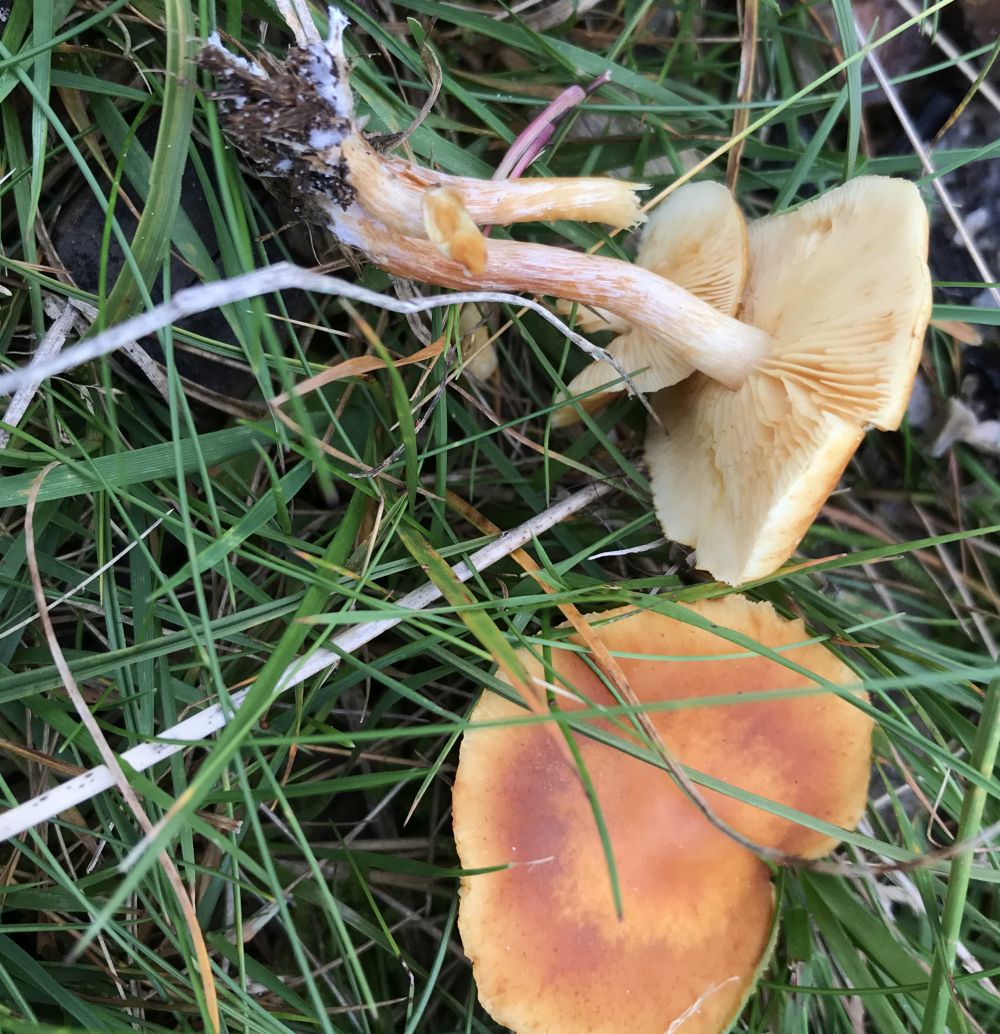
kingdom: Fungi
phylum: Basidiomycota
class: Agaricomycetes
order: Agaricales
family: Hymenogastraceae
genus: Gymnopilus
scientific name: Gymnopilus penetrans
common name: plettet flammehat
